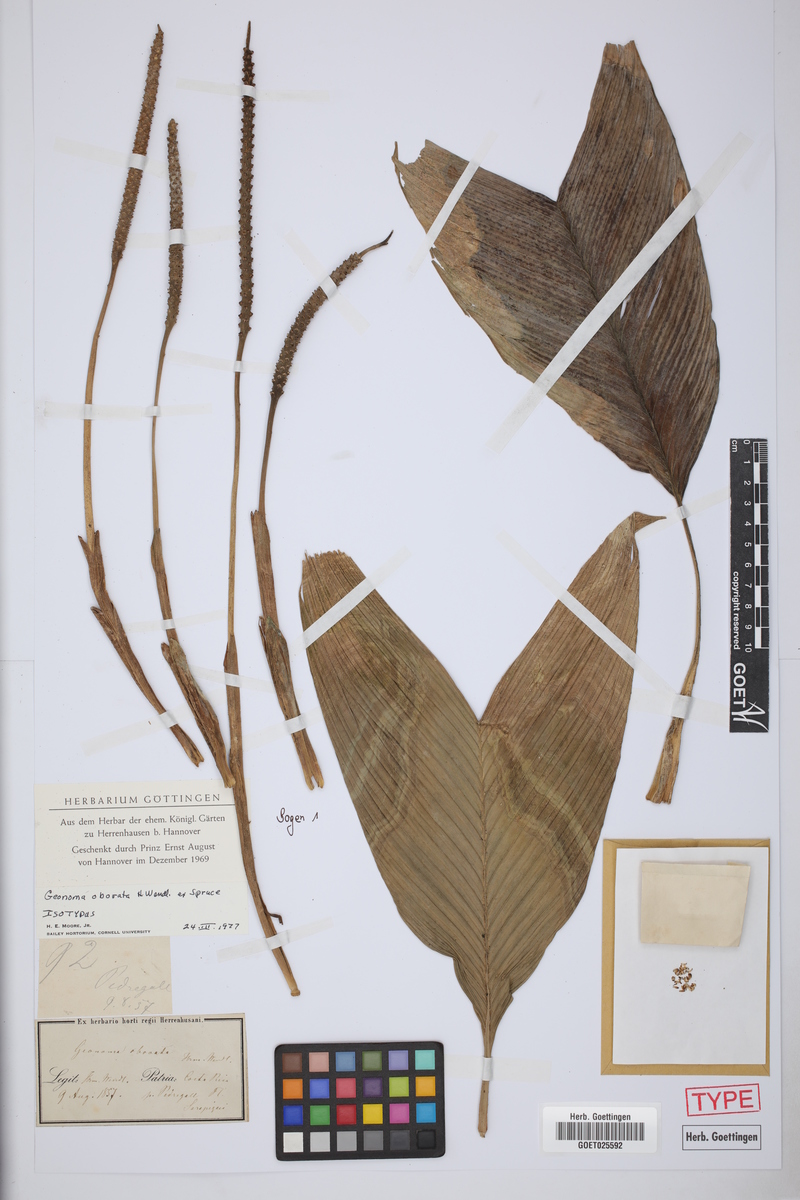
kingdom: Plantae
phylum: Tracheophyta
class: Liliopsida
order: Arecales
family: Arecaceae
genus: Geonoma
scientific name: Geonoma cuneata
